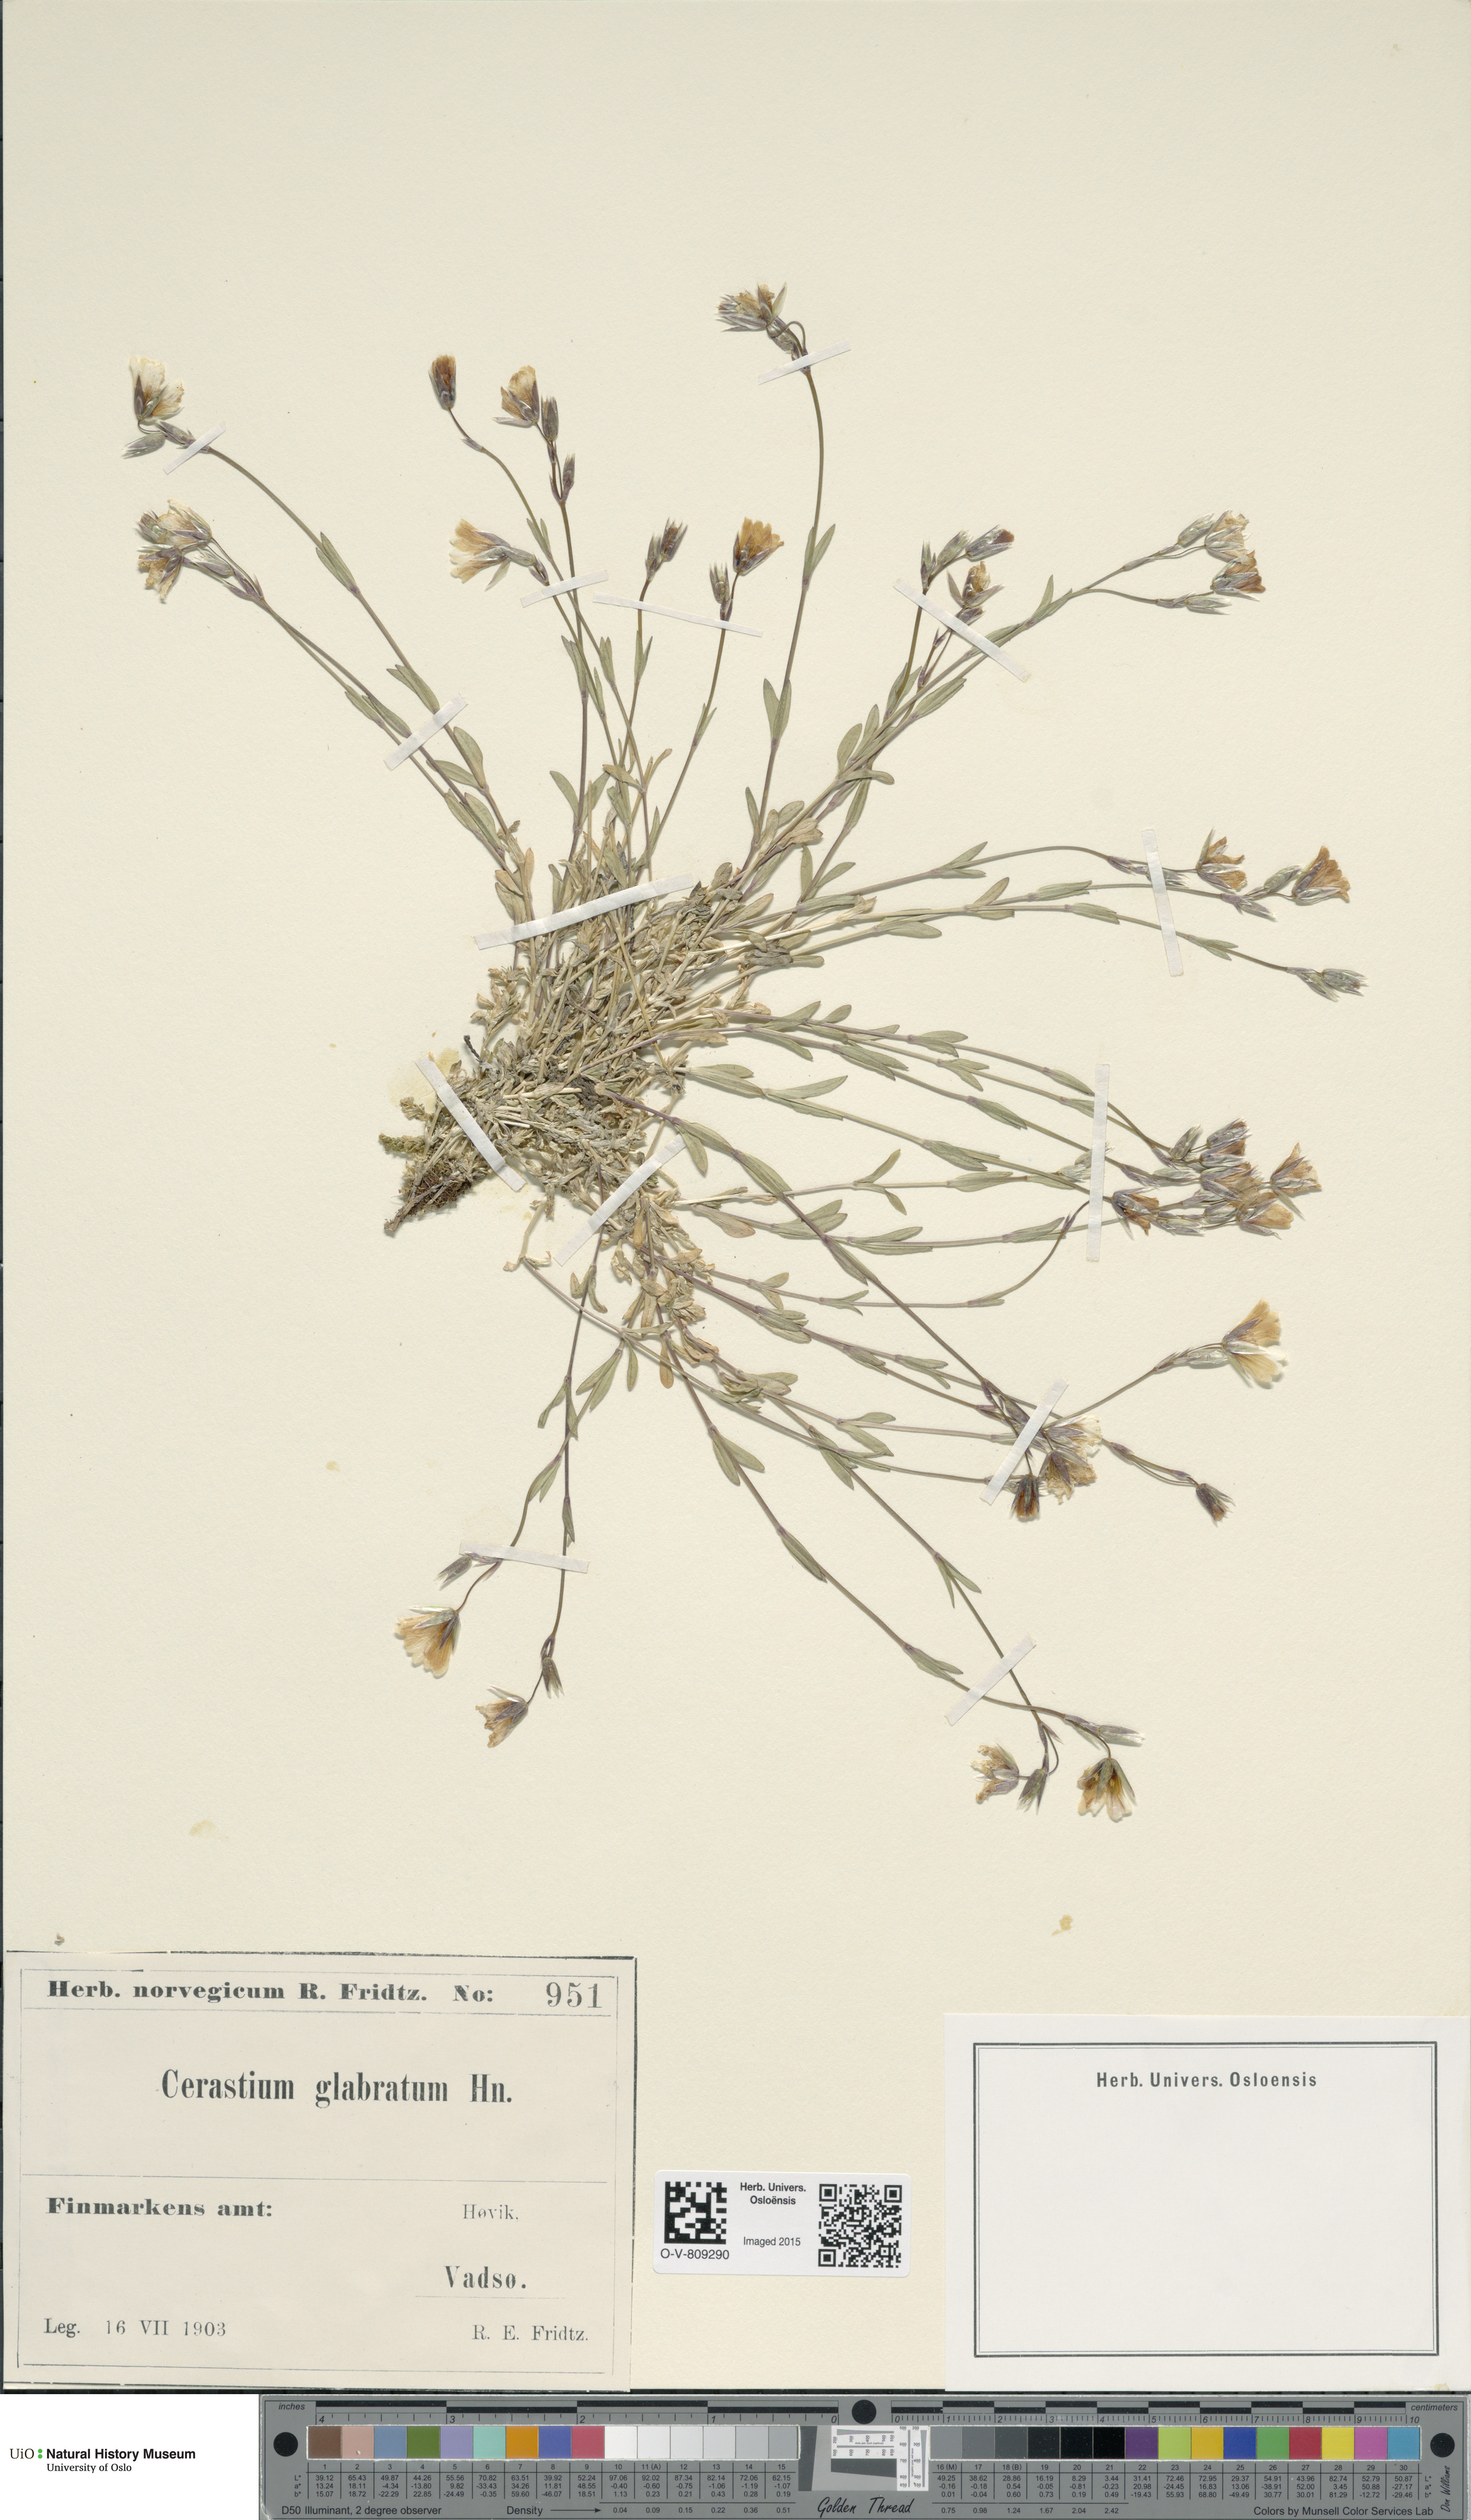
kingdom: Plantae
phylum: Tracheophyta
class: Magnoliopsida
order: Caryophyllales
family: Caryophyllaceae
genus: Cerastium
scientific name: Cerastium alpinum
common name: Alpine mouse-ear
